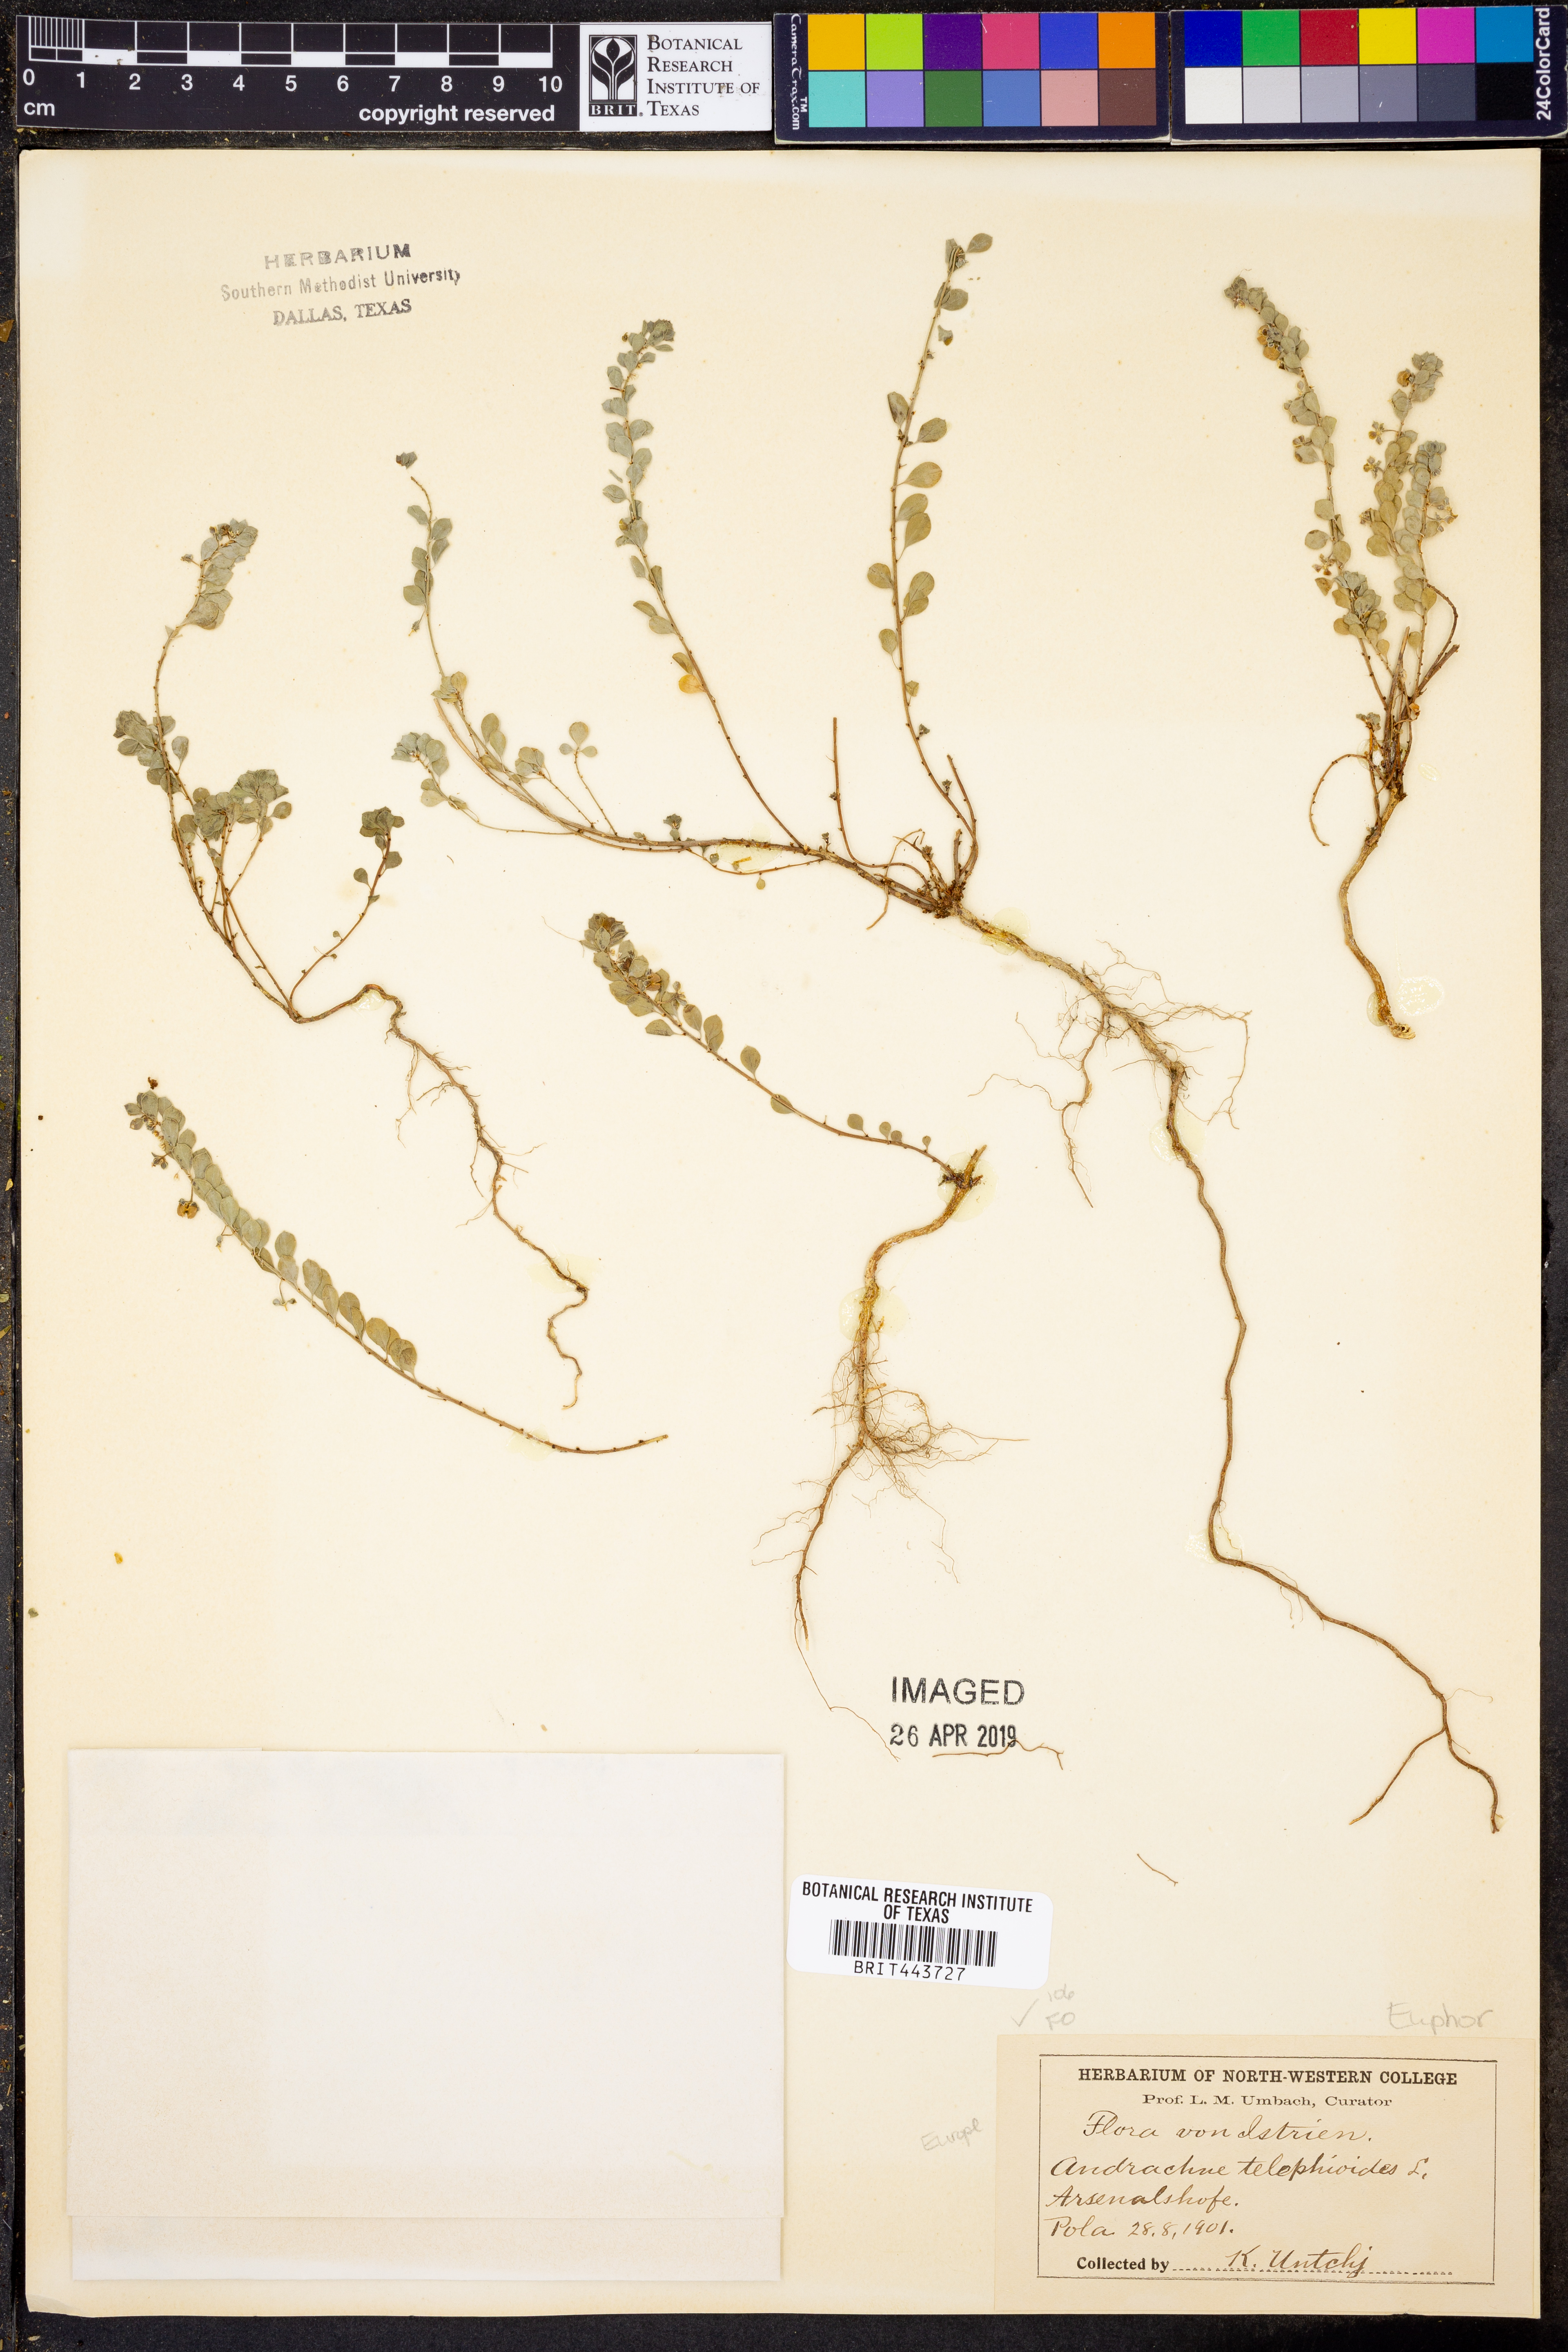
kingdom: Plantae
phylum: Tracheophyta
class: Magnoliopsida
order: Malpighiales
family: Phyllanthaceae
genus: Andrachne
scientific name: Andrachne telephioides
